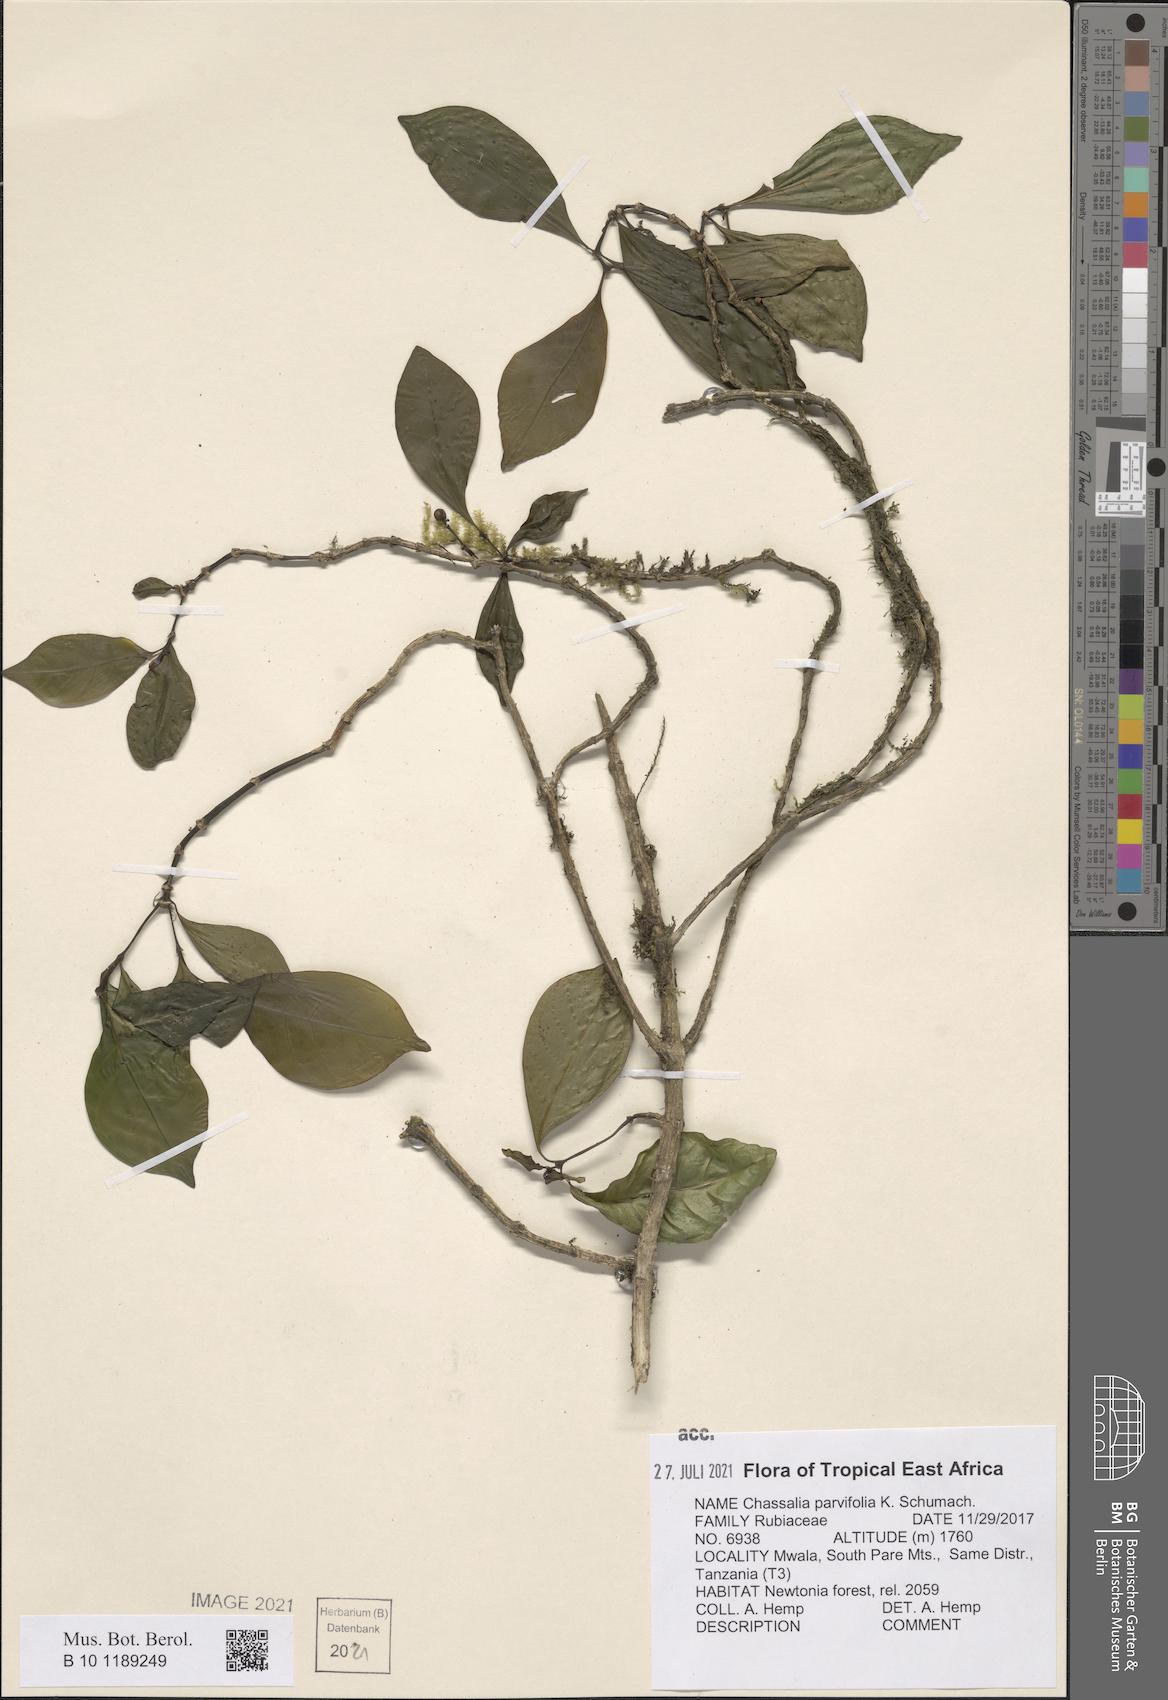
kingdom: Plantae
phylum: Tracheophyta
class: Magnoliopsida
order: Gentianales
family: Rubiaceae
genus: Chassalia
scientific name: Chassalia parvifolia
